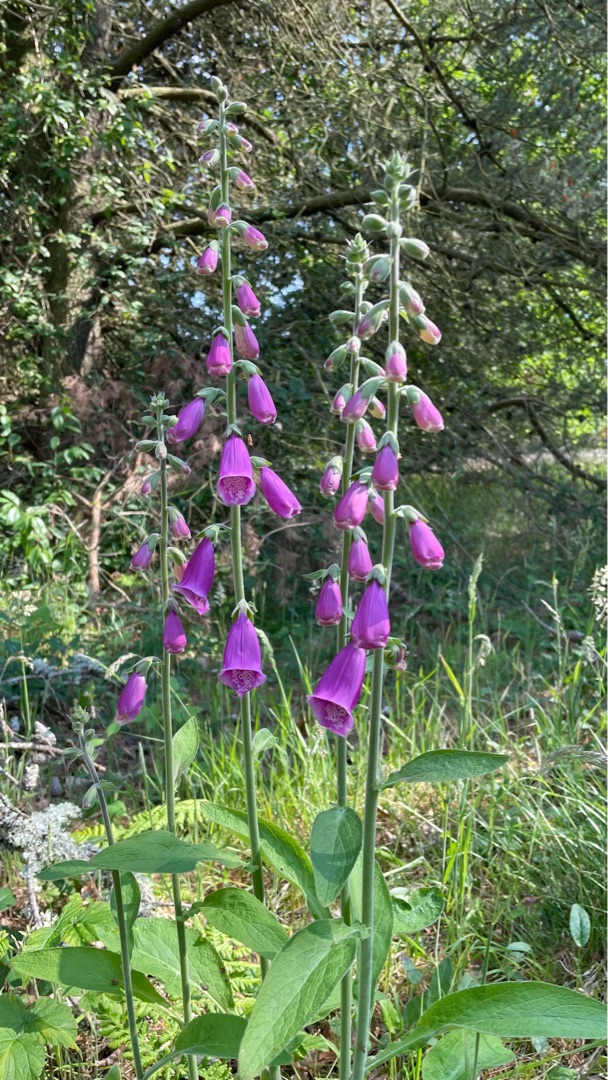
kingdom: Plantae
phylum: Tracheophyta
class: Magnoliopsida
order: Lamiales
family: Plantaginaceae
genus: Digitalis
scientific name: Digitalis purpurea
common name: Almindelig fingerbøl
